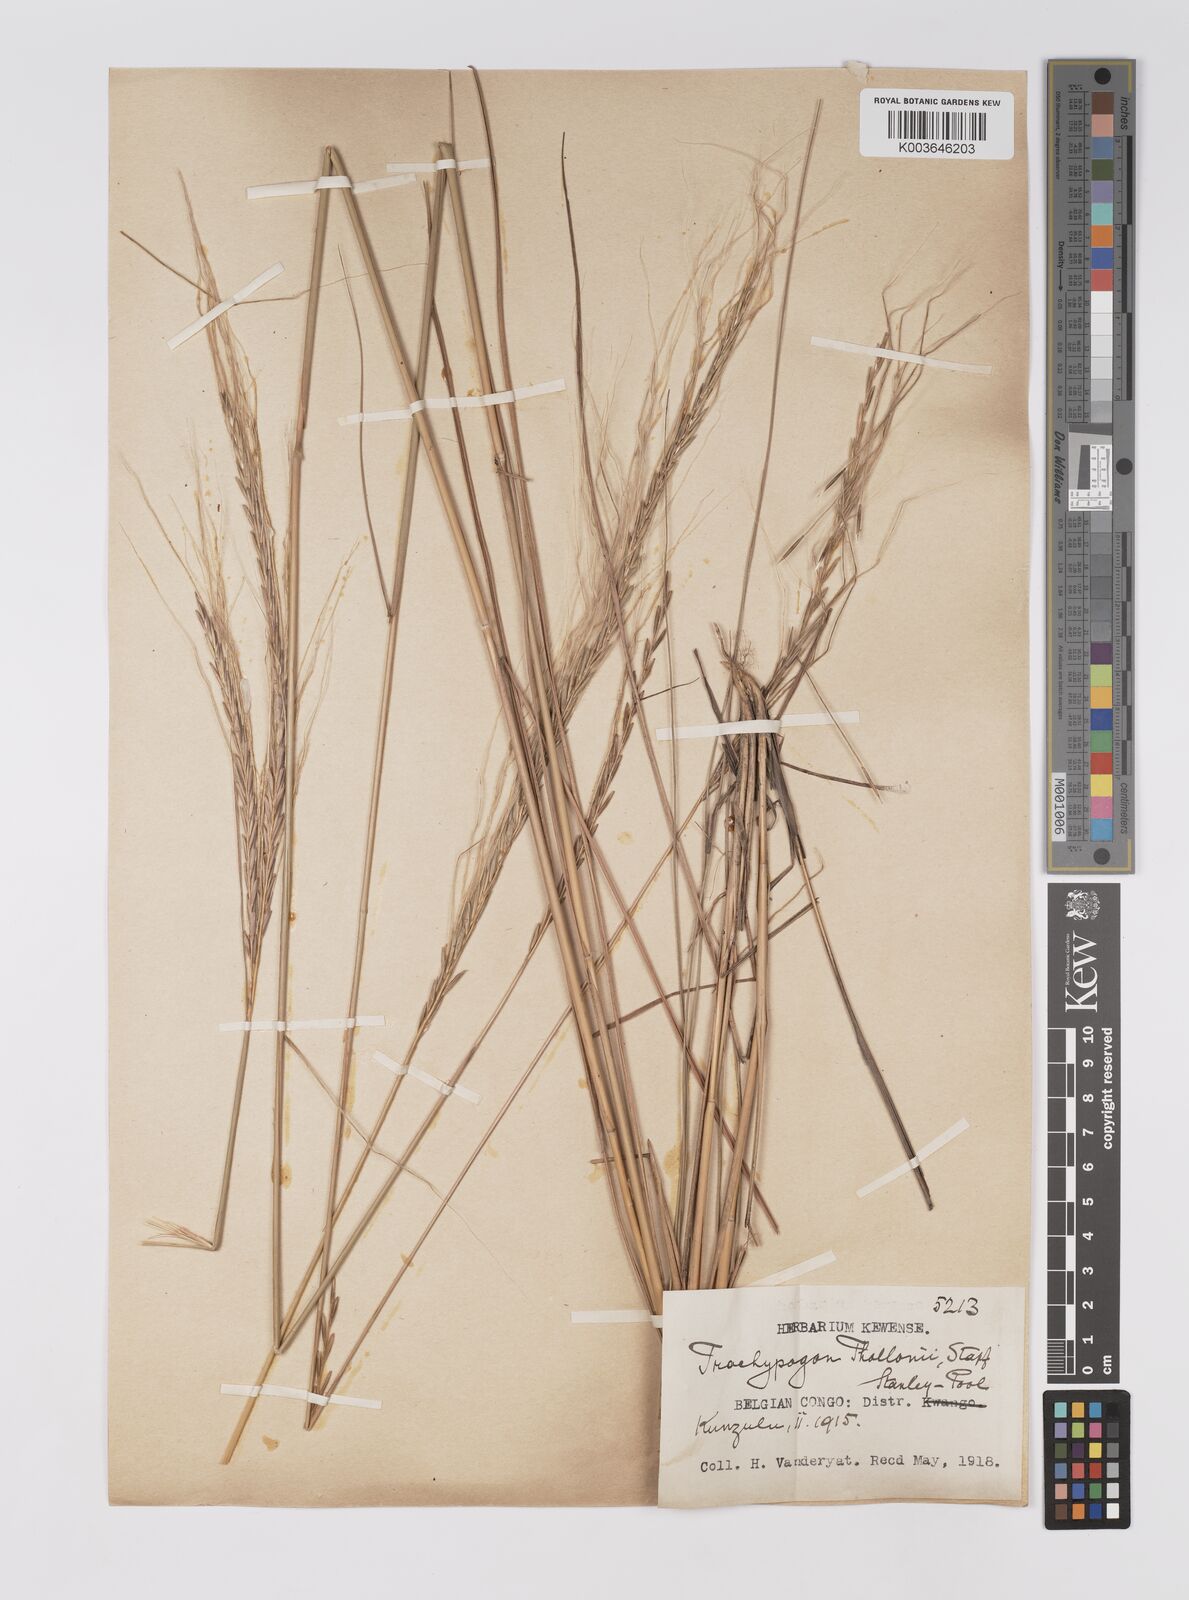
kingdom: Plantae
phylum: Tracheophyta
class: Liliopsida
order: Poales
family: Poaceae
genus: Trachypogon
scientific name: Trachypogon spicatus
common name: Crinkle-awn
